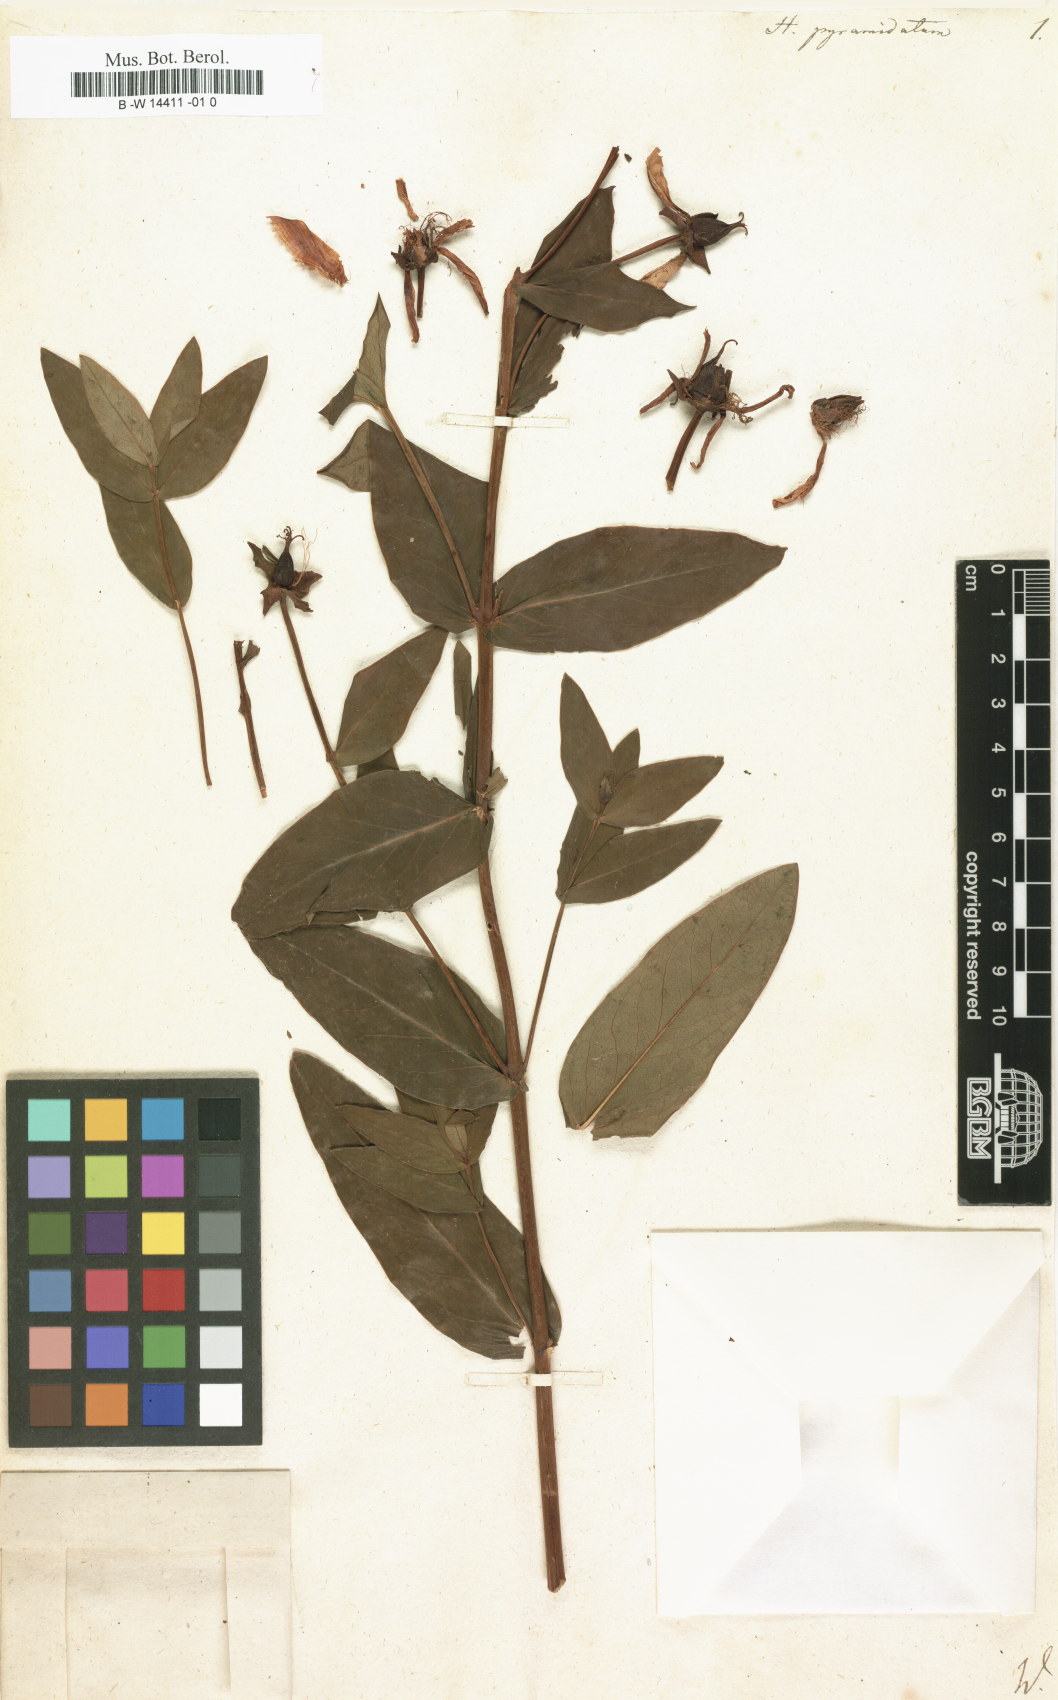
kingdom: Plantae
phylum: Tracheophyta
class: Magnoliopsida
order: Malpighiales
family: Hypericaceae
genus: Hypericum
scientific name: Hypericum ascyron
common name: Giant st. john's-wort
